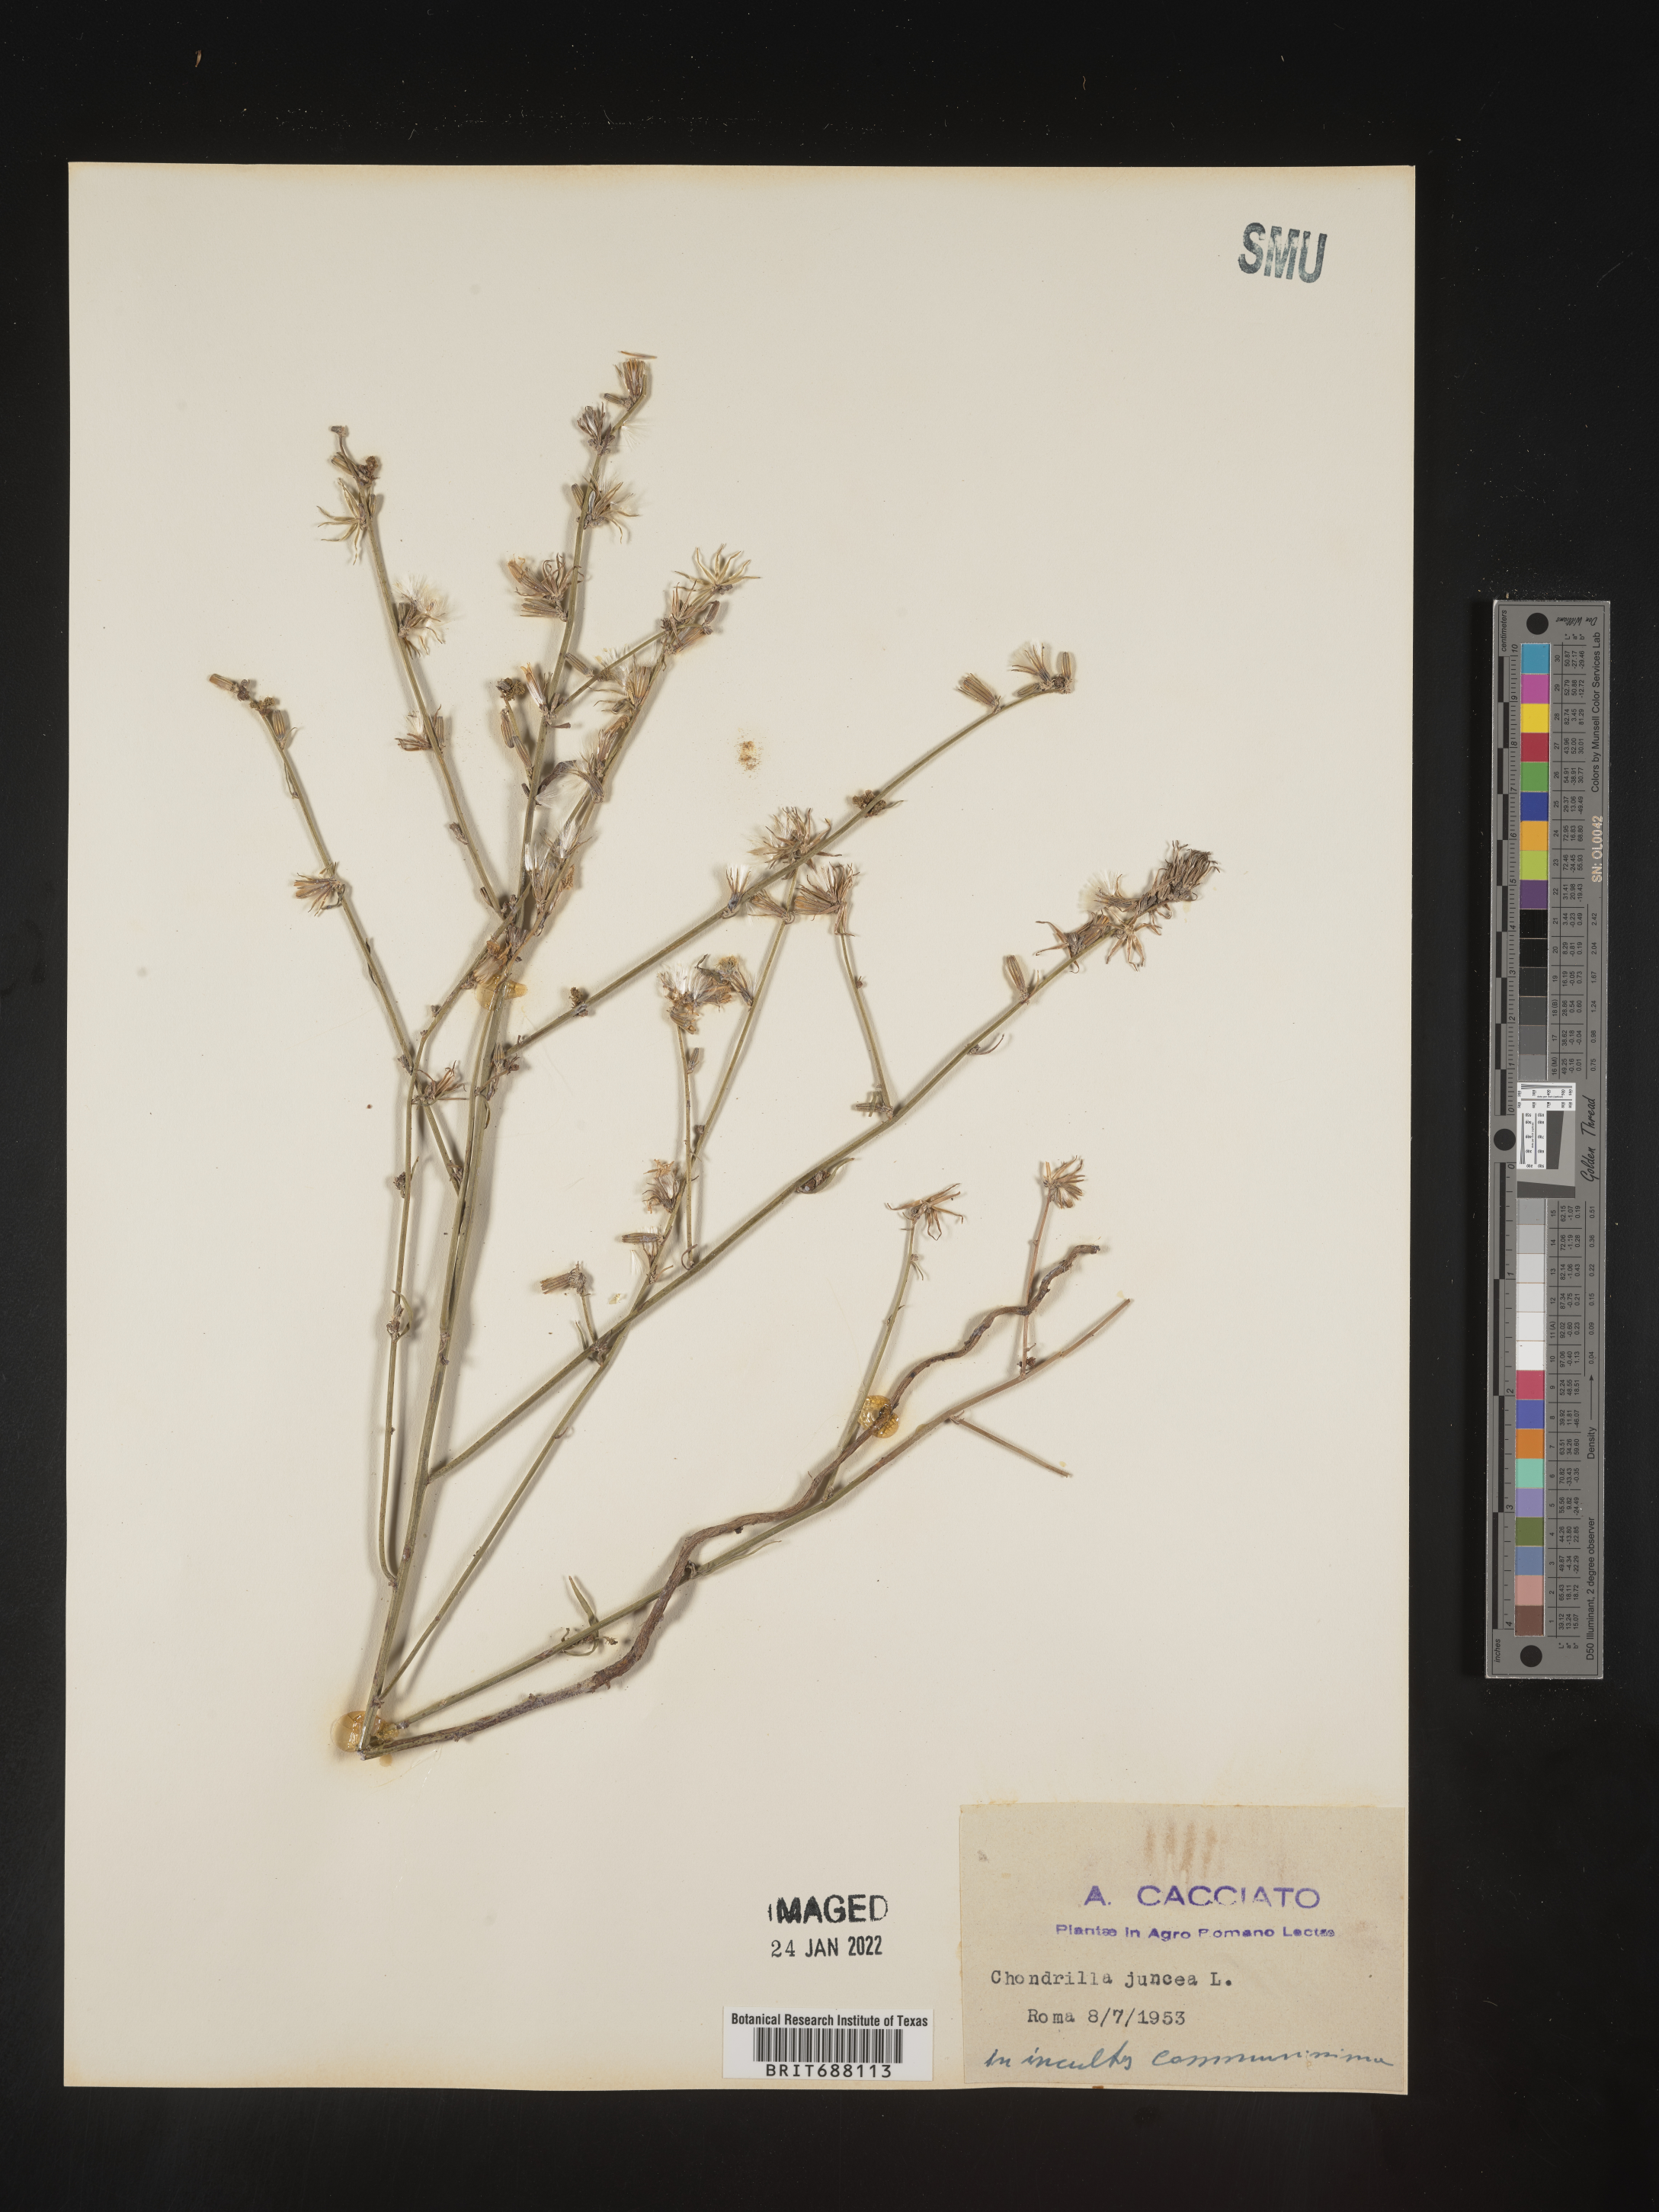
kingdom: Plantae
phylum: Tracheophyta
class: Magnoliopsida
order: Asterales
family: Asteraceae
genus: Chondrilla
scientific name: Chondrilla
